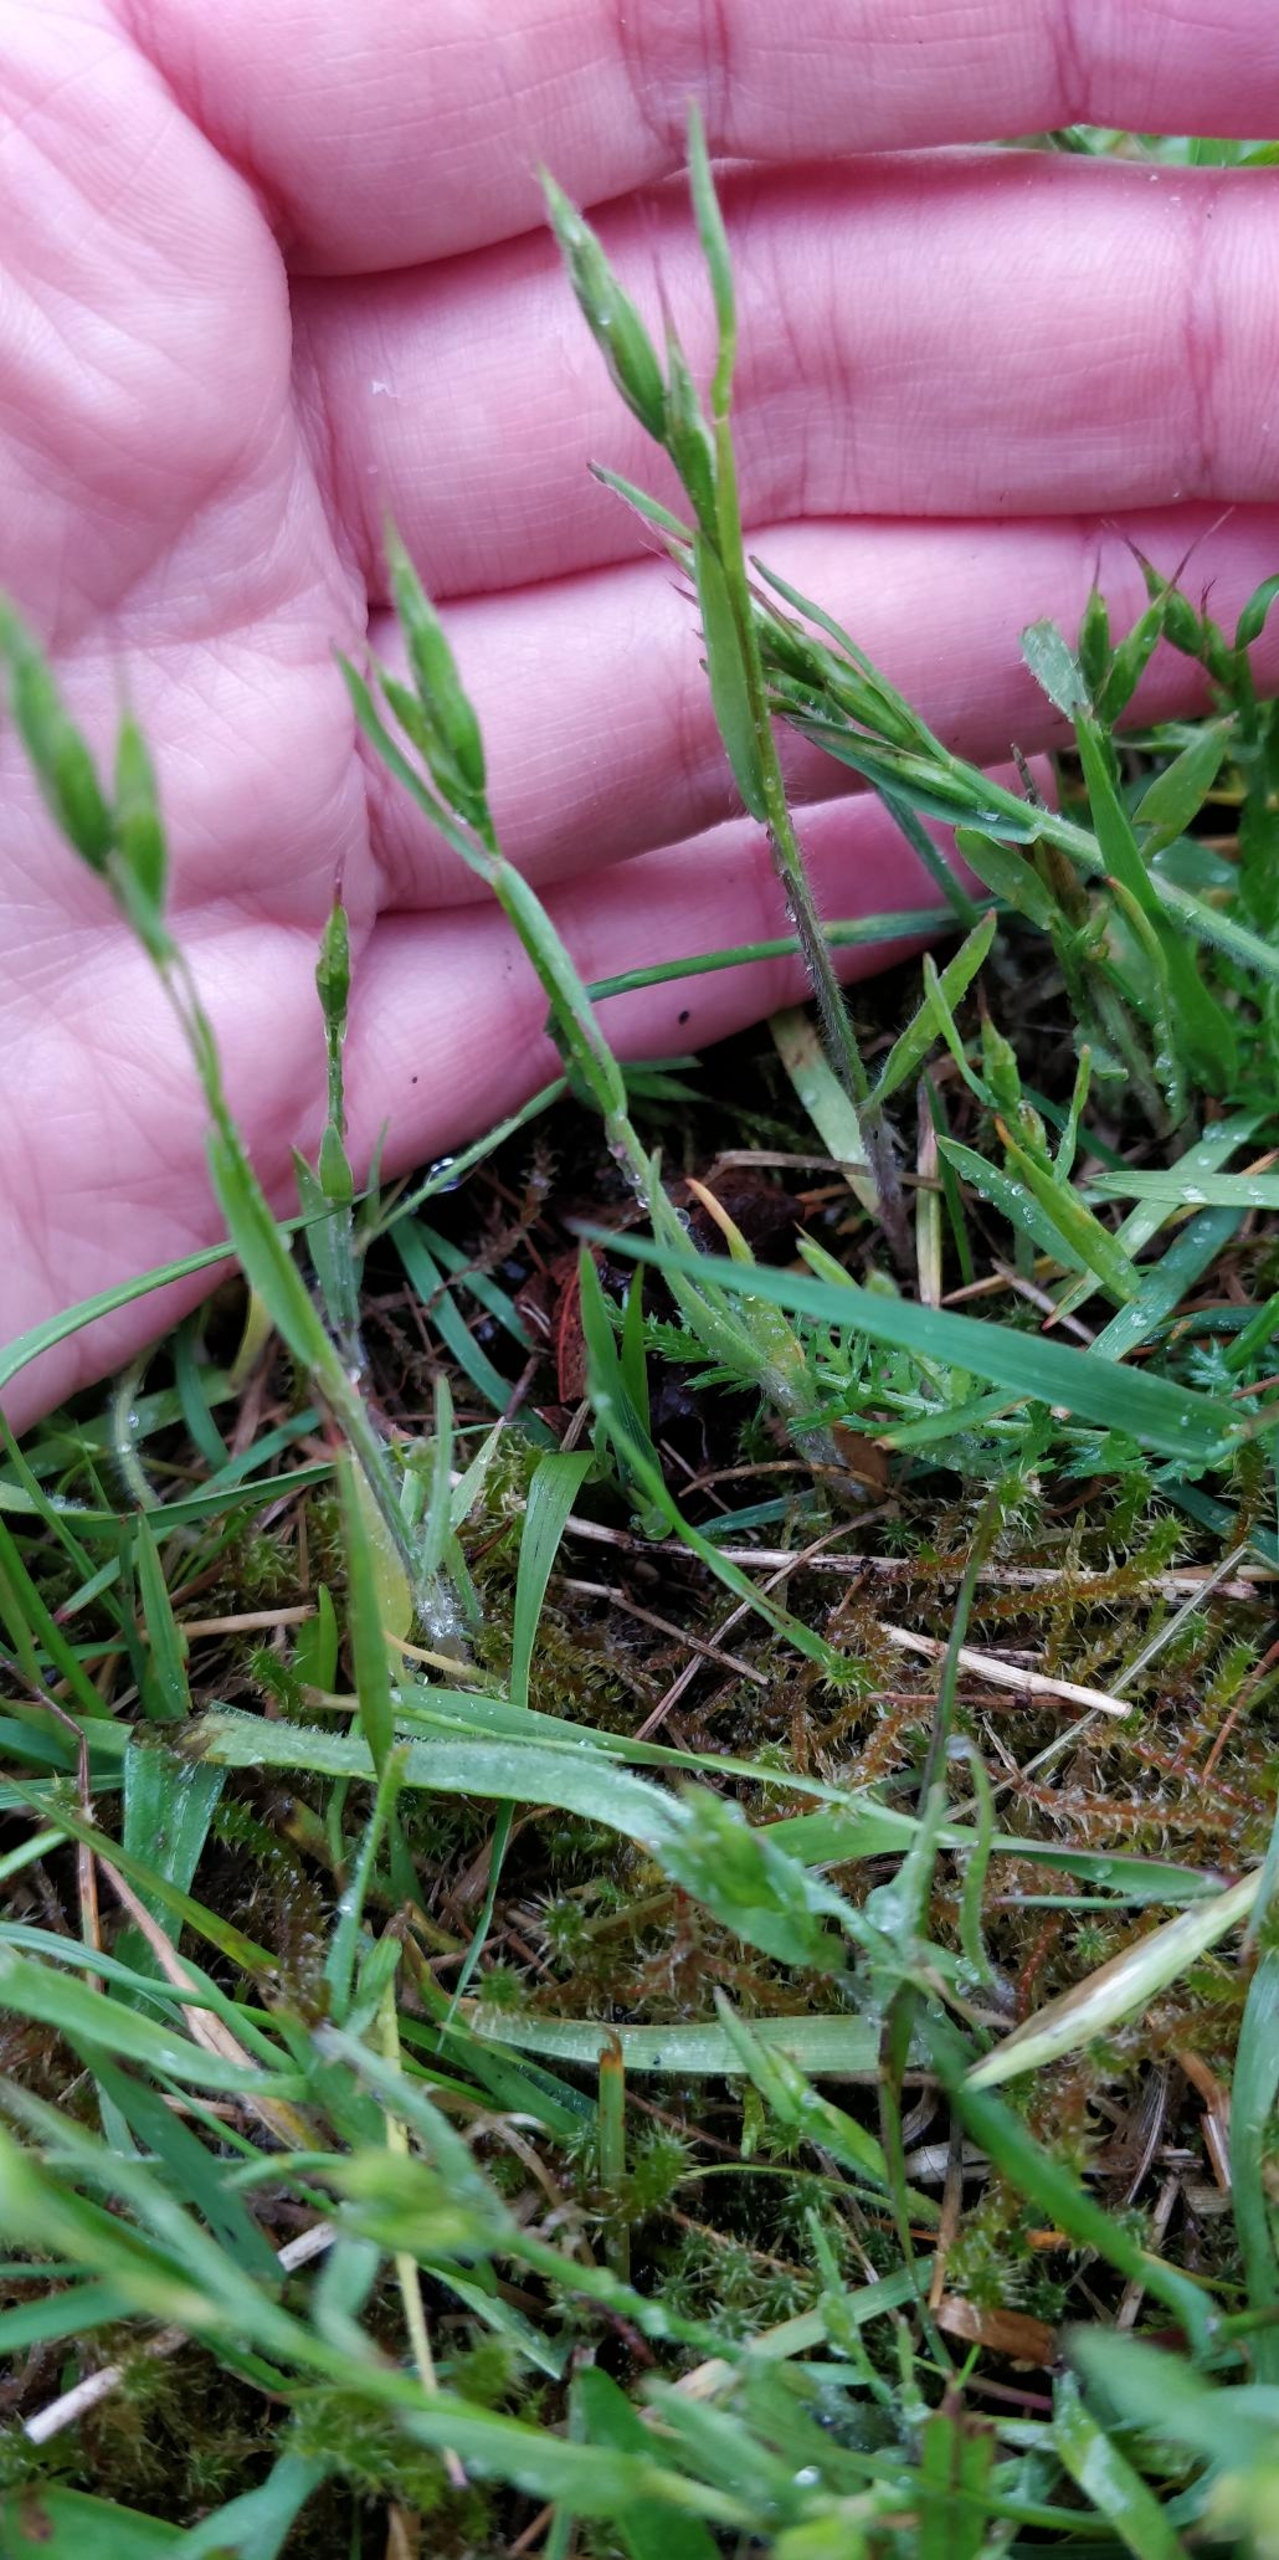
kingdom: Plantae
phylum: Tracheophyta
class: Liliopsida
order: Poales
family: Poaceae
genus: Bromus
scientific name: Bromus hordeaceus
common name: Blød hejre
